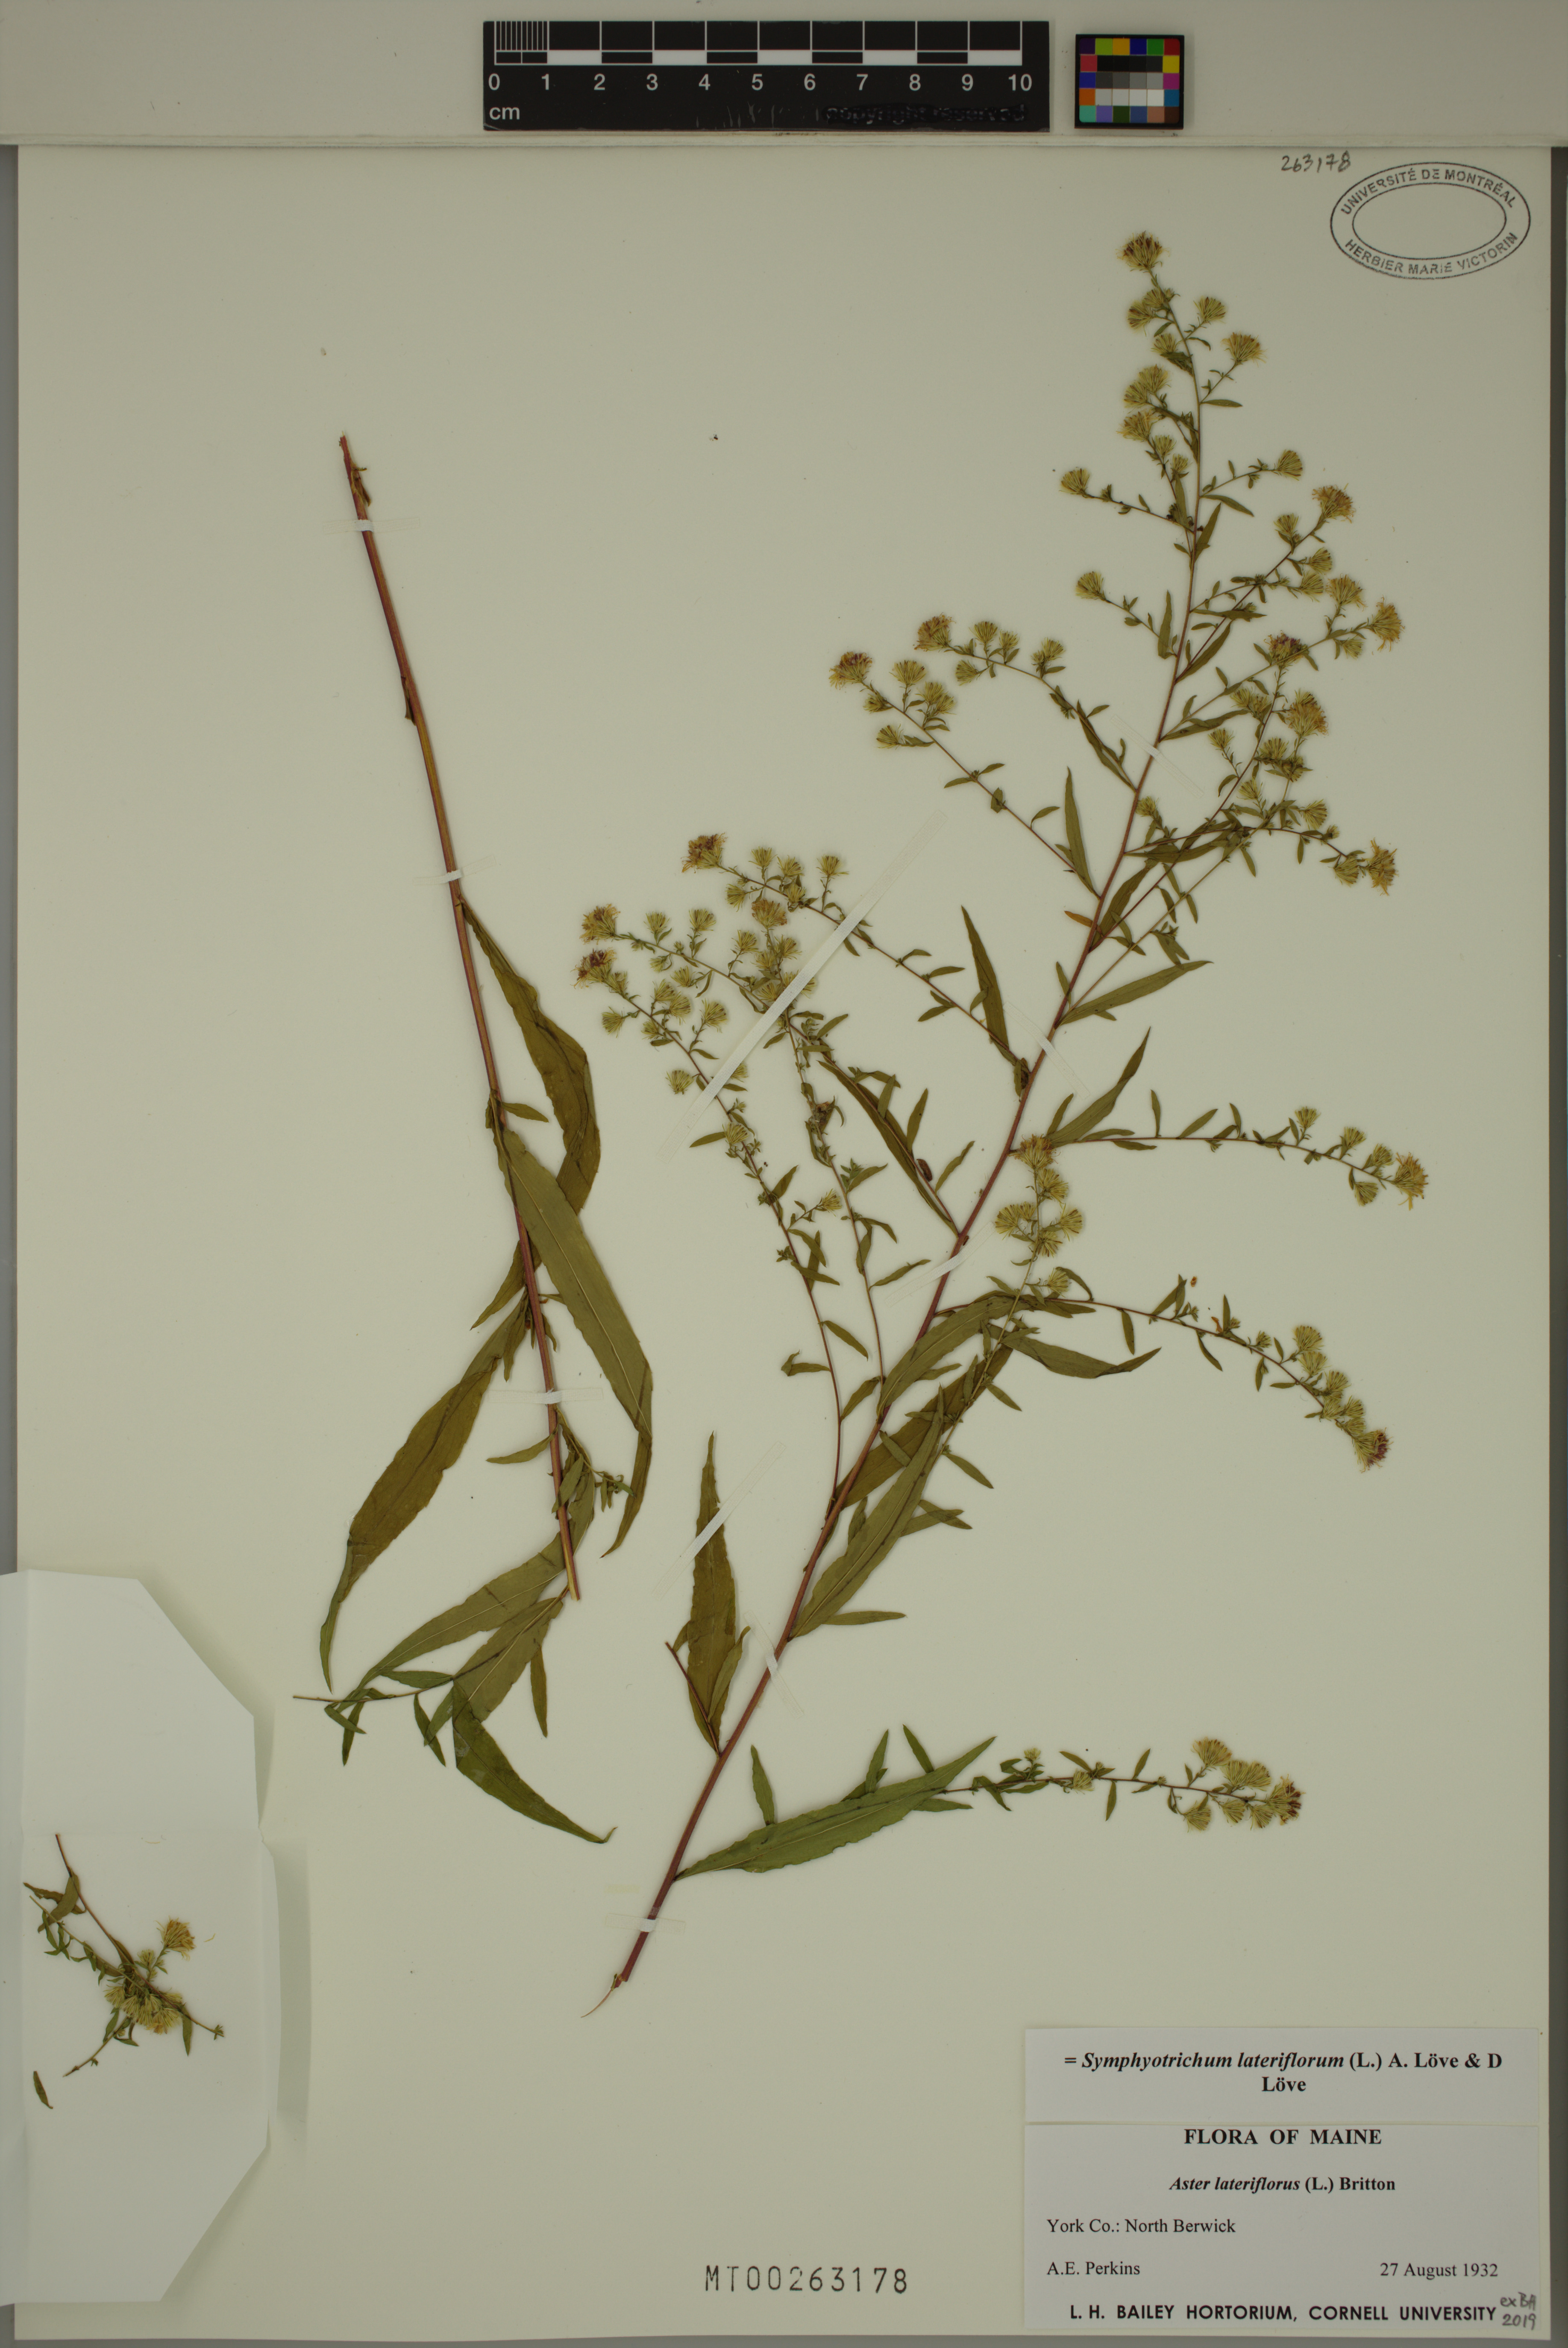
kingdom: Plantae
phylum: Tracheophyta
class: Magnoliopsida
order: Asterales
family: Asteraceae
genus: Symphyotrichum
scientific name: Symphyotrichum lateriflorum
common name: Calico aster
